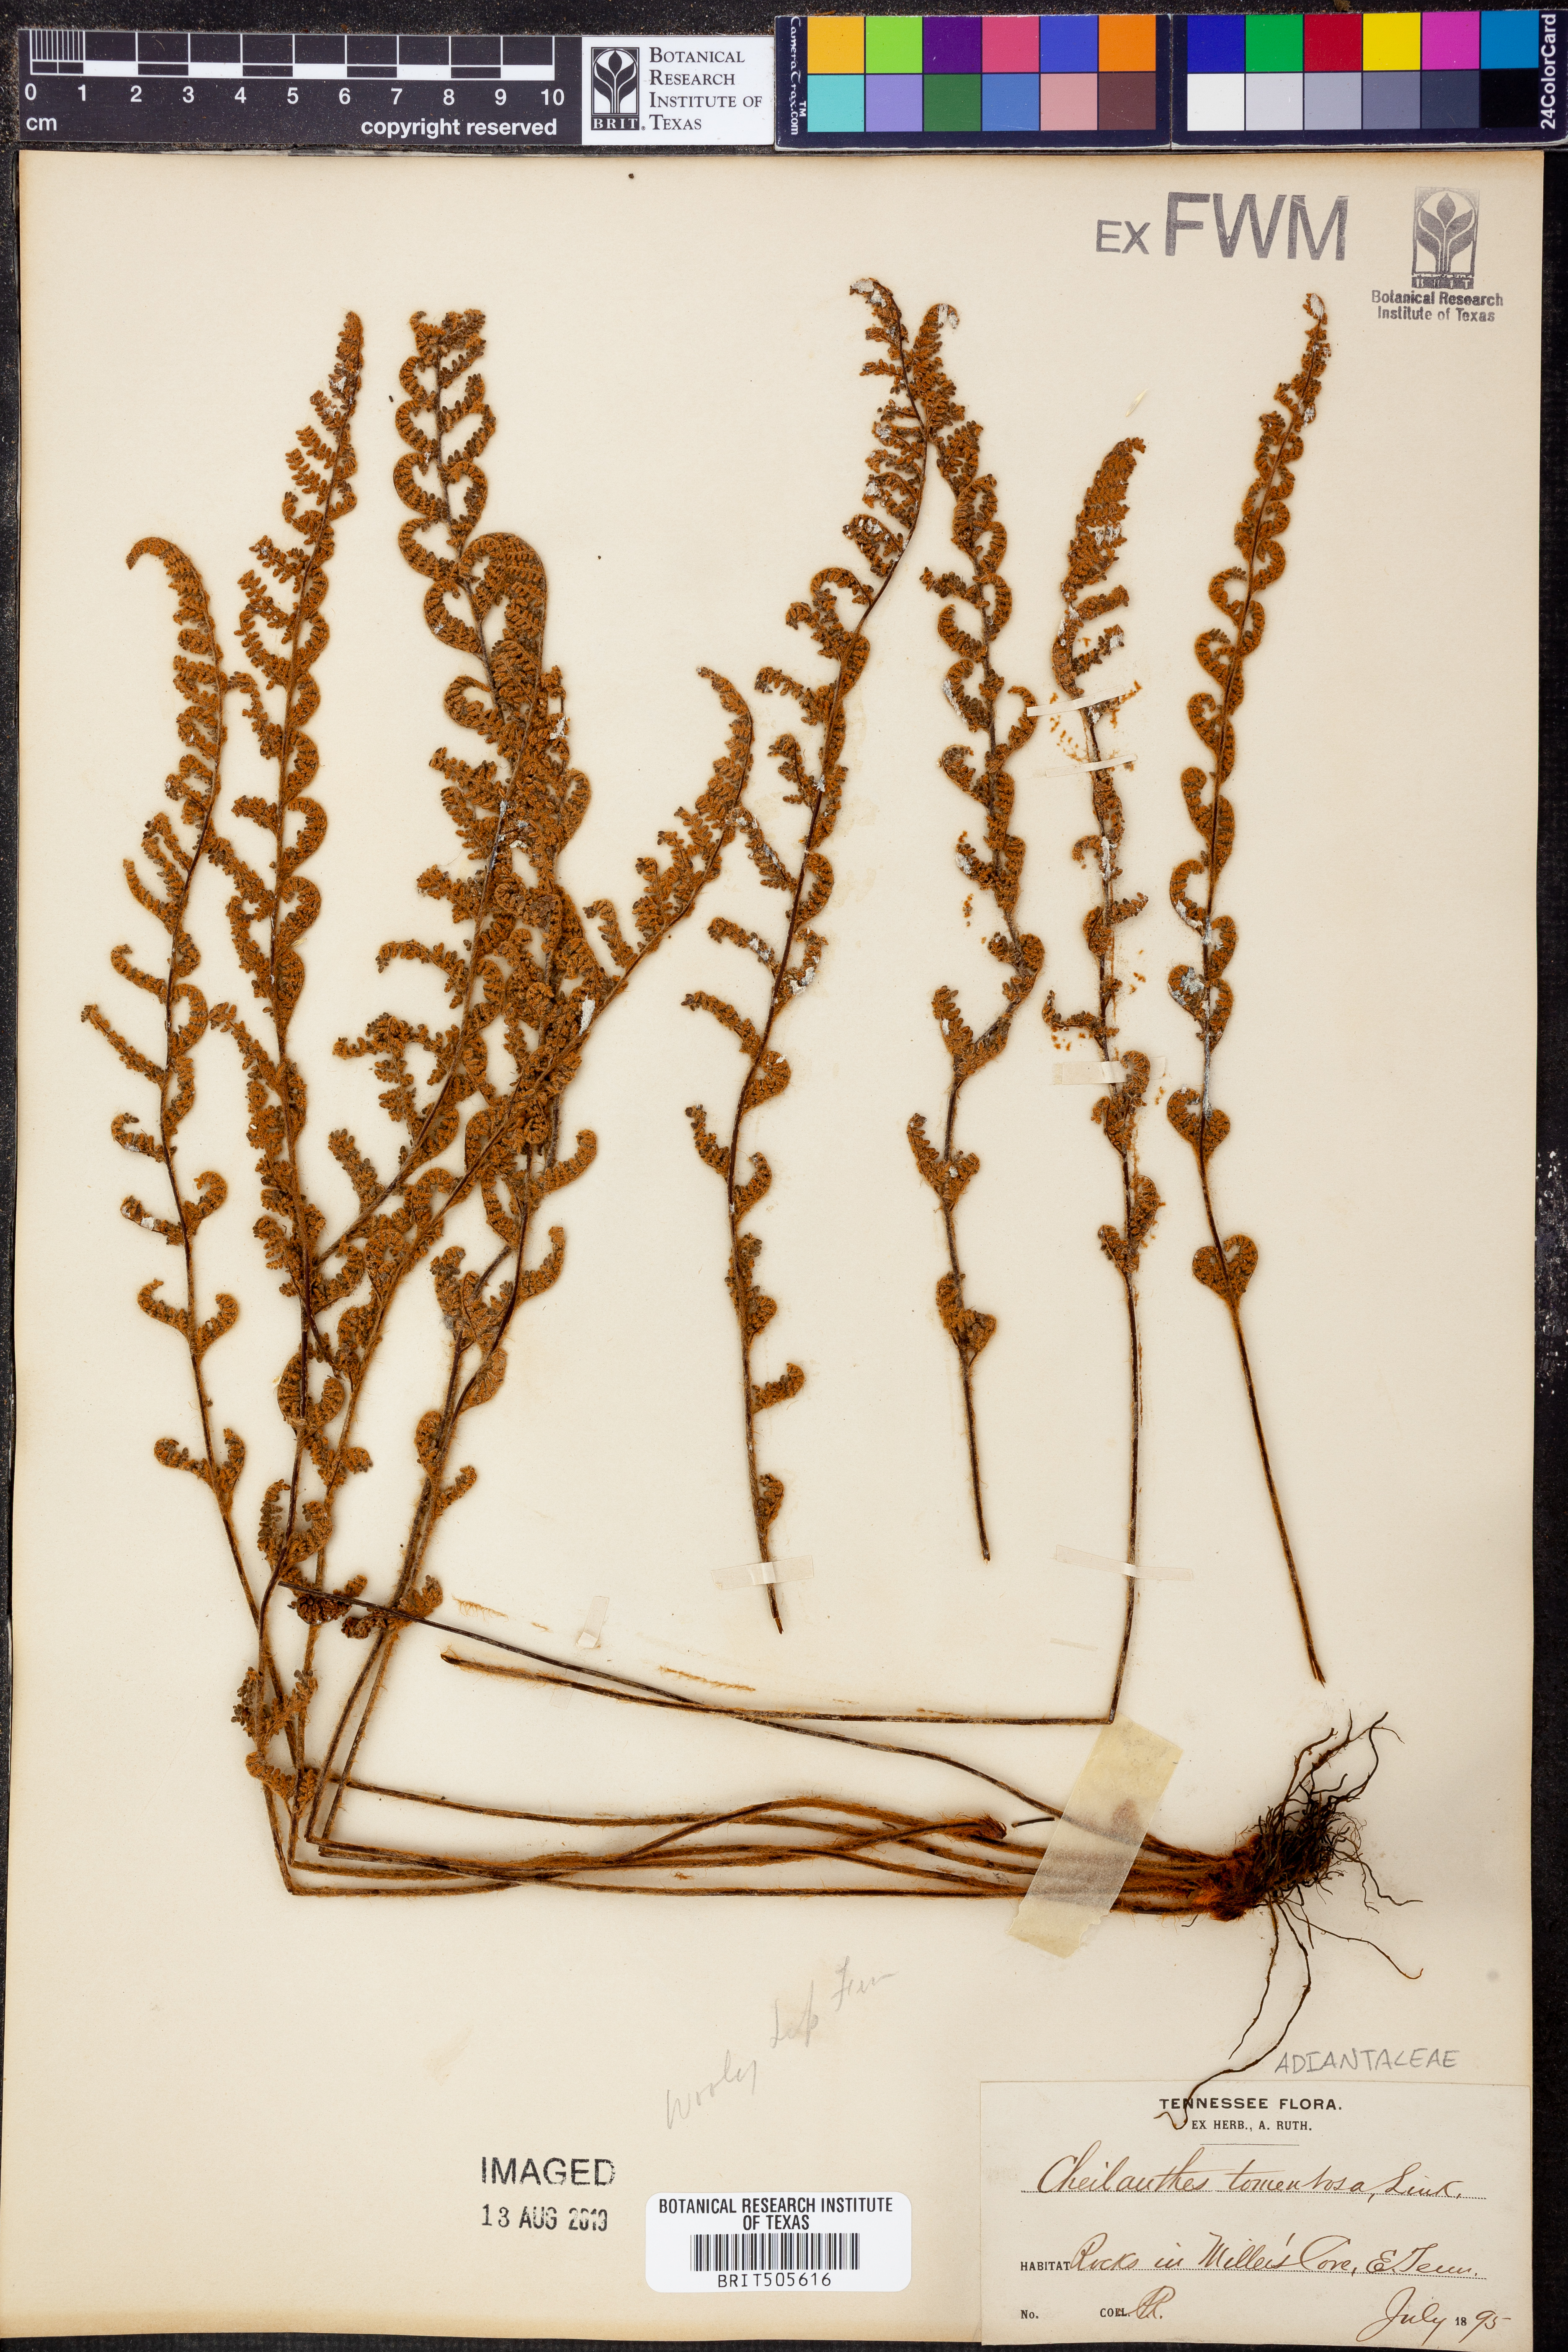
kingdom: Plantae
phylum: Tracheophyta
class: Polypodiopsida
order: Polypodiales
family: Pteridaceae
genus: Myriopteris
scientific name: Myriopteris tomentosa
